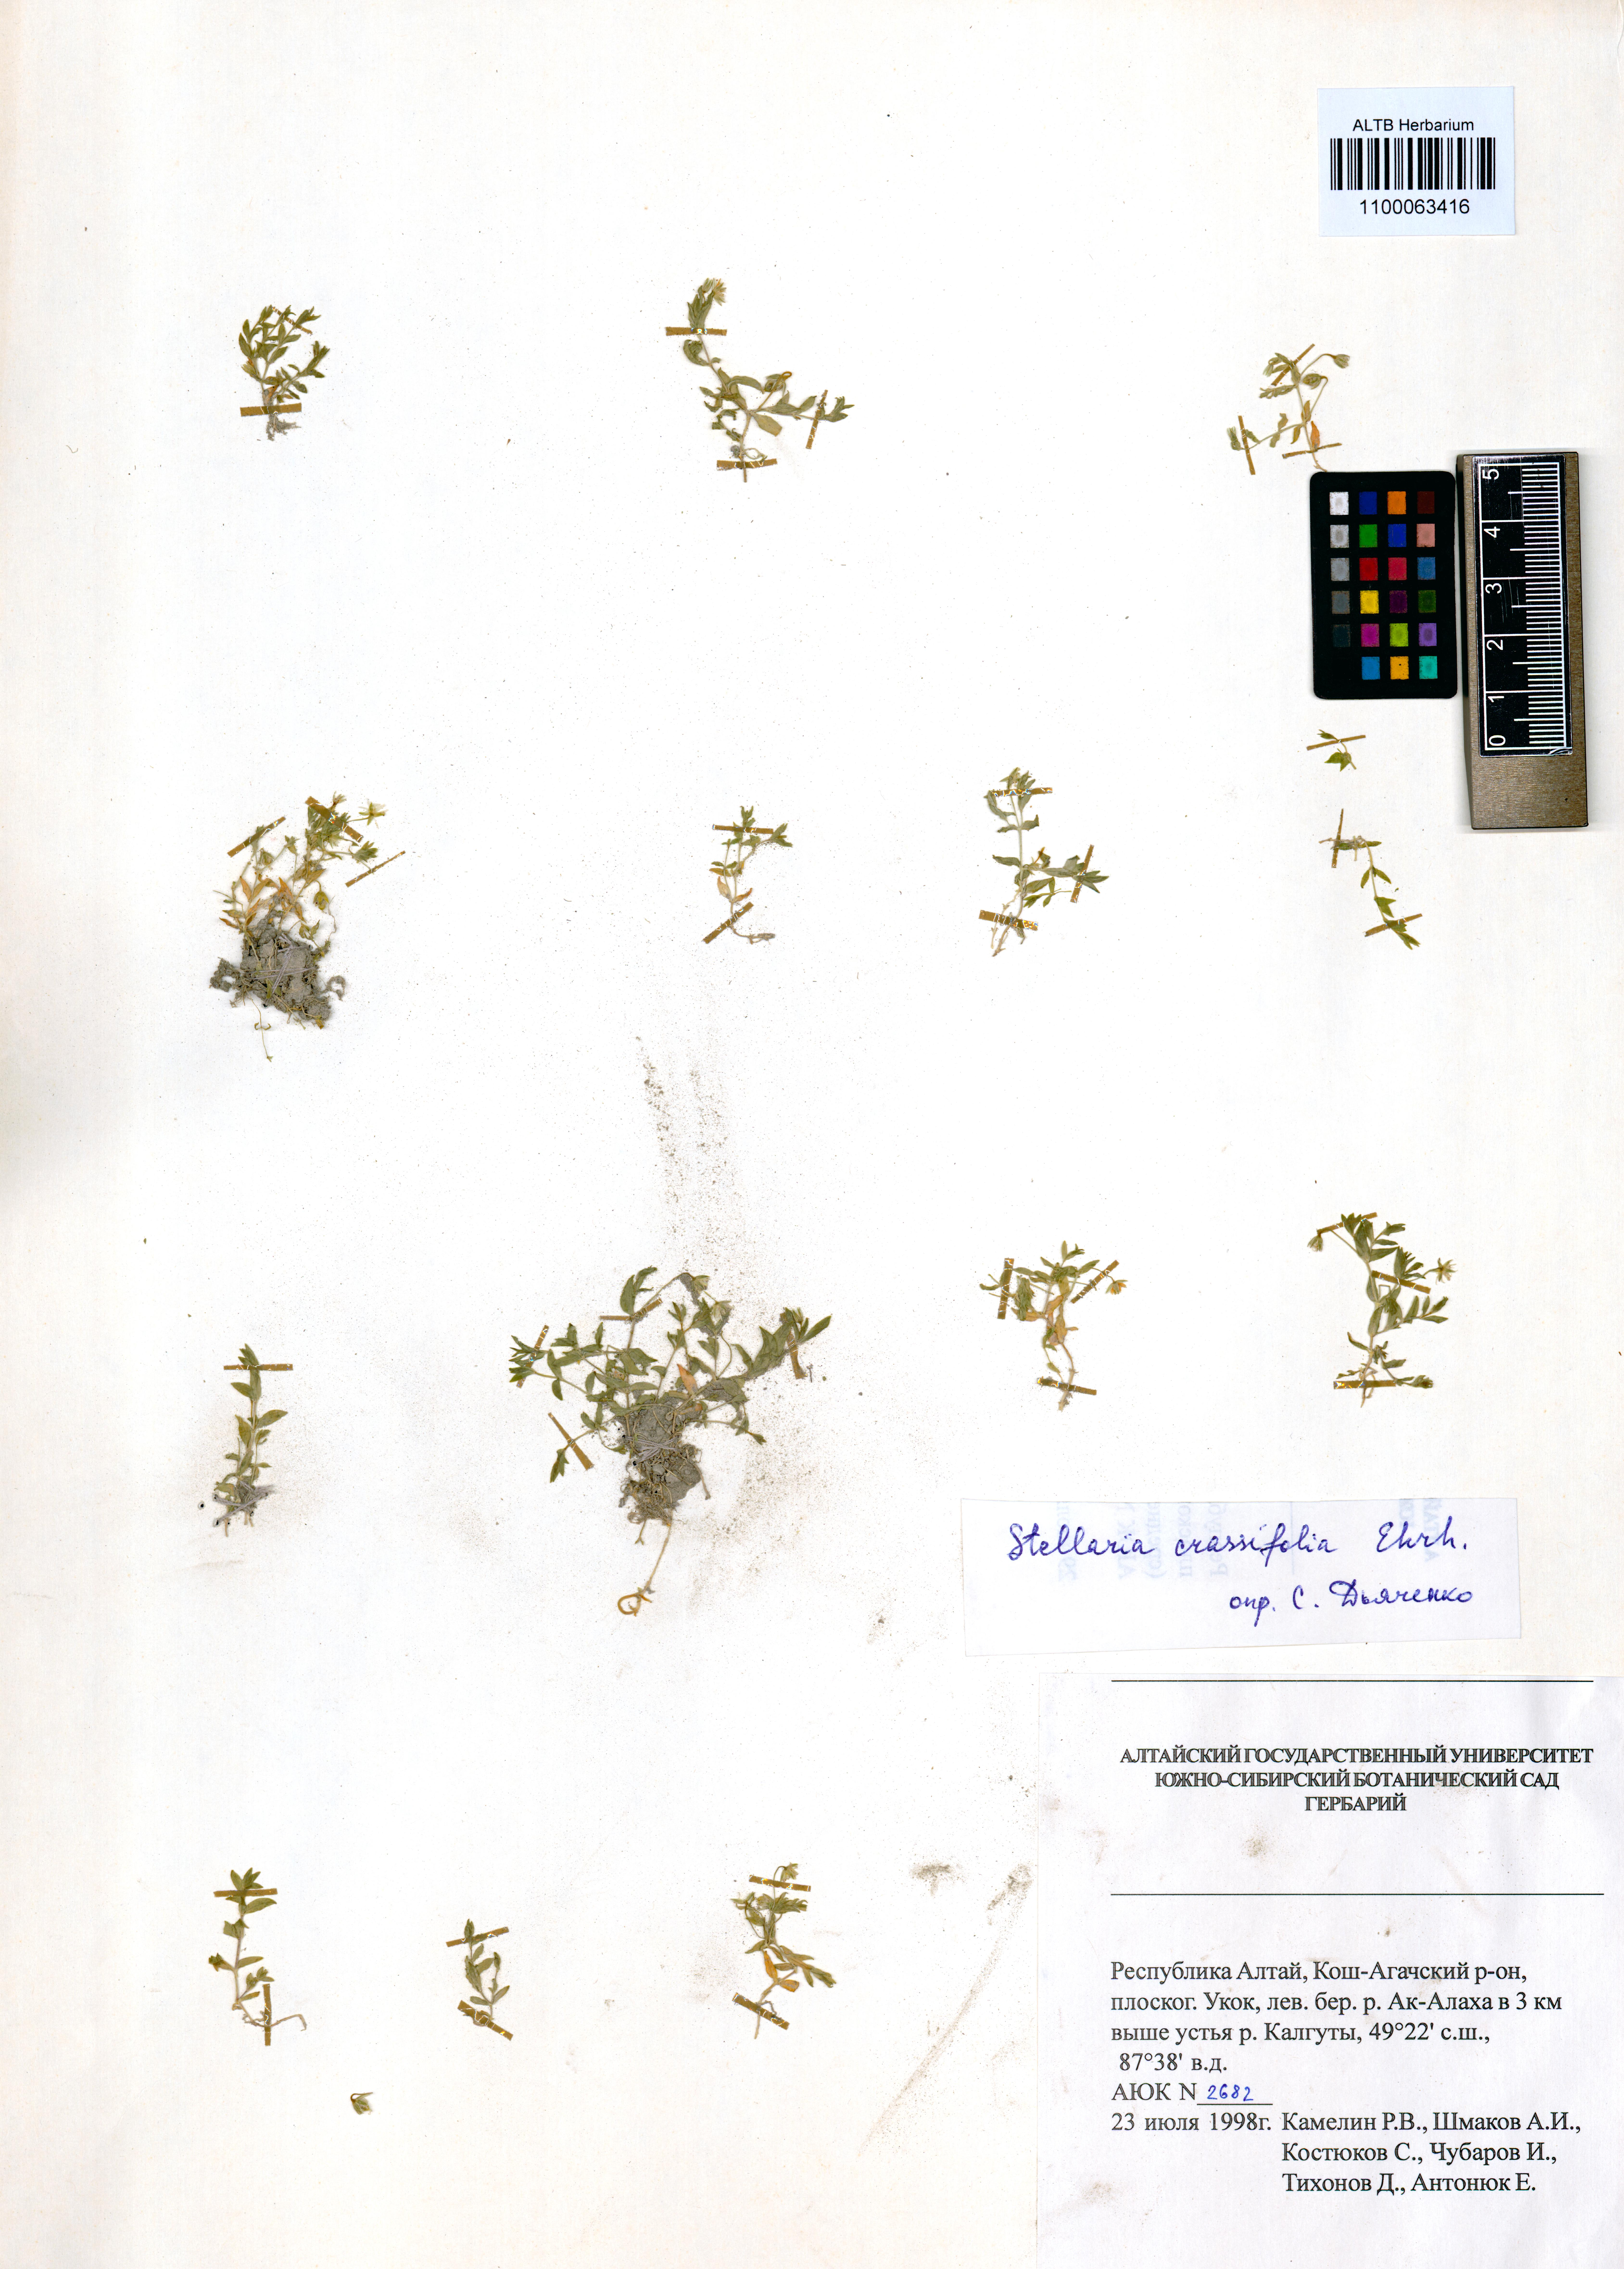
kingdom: Plantae
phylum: Tracheophyta
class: Magnoliopsida
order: Caryophyllales
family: Caryophyllaceae
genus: Stellaria
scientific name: Stellaria crassifolia
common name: Fleshy starwort
